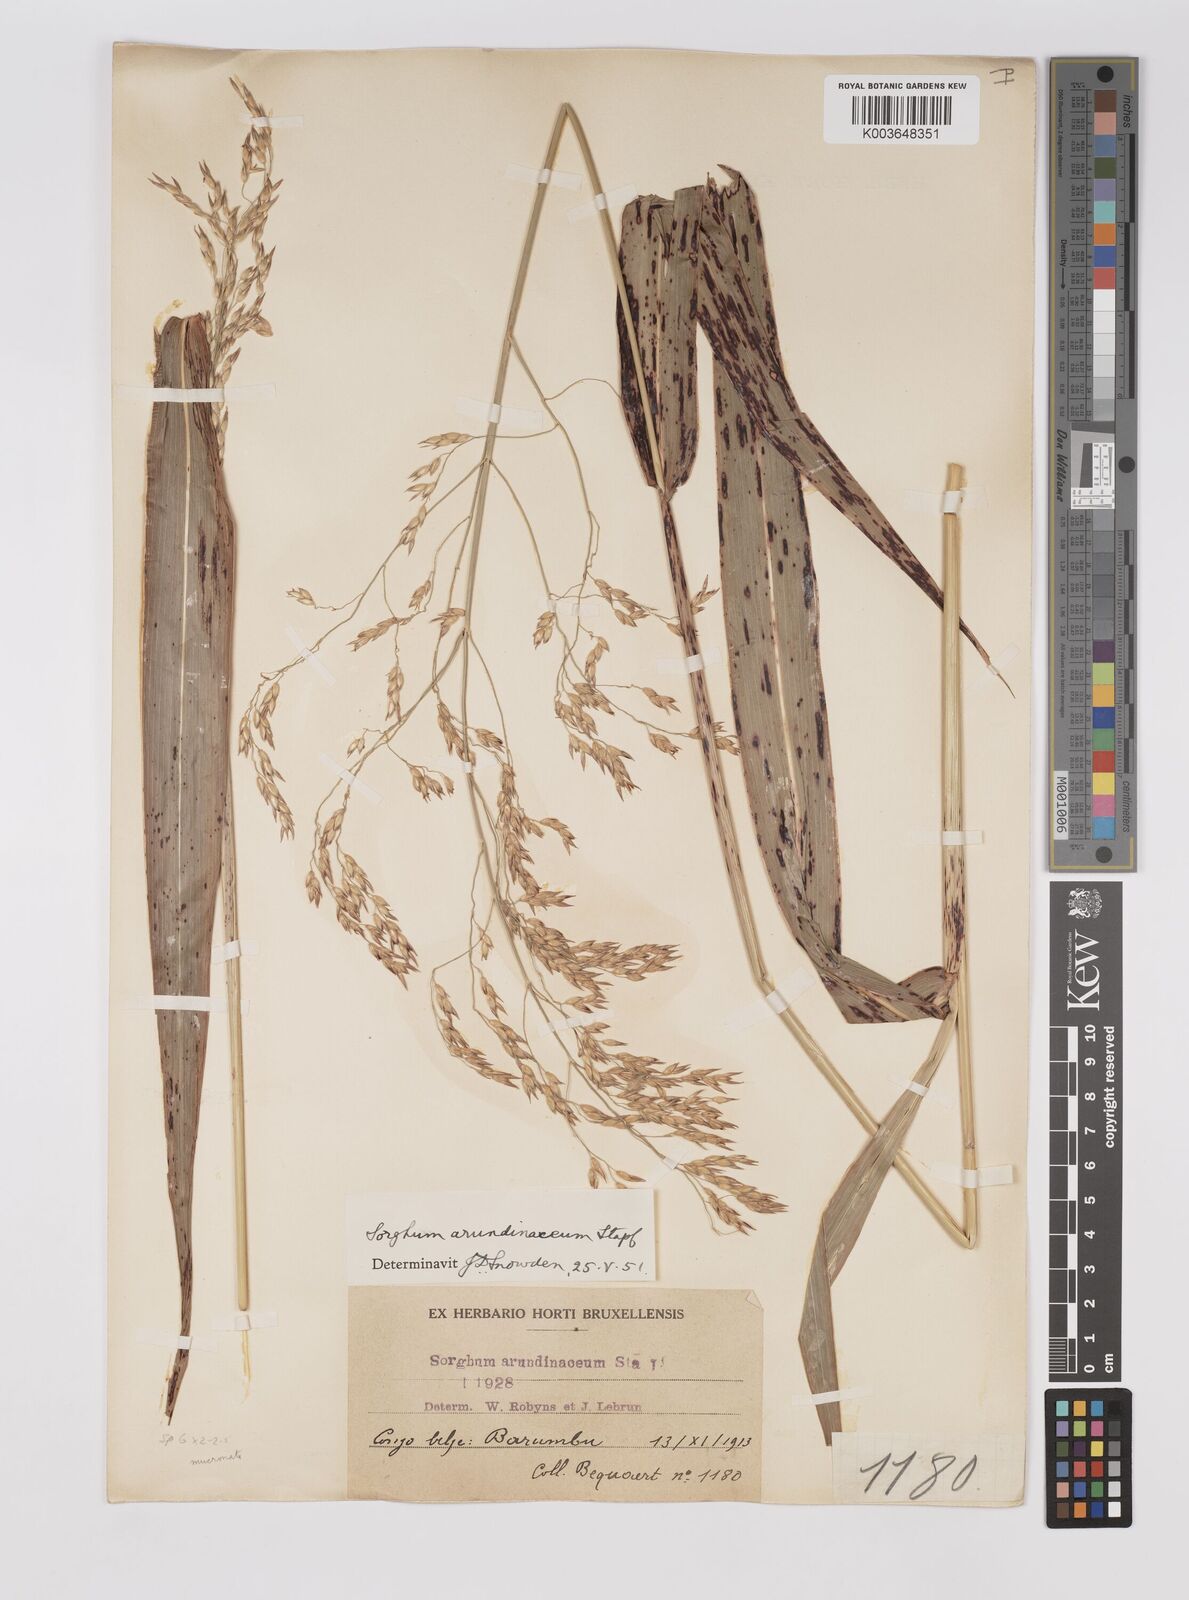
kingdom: Plantae
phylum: Tracheophyta
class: Liliopsida
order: Poales
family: Poaceae
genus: Sorghum
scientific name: Sorghum arundinaceum
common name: Sorghum
